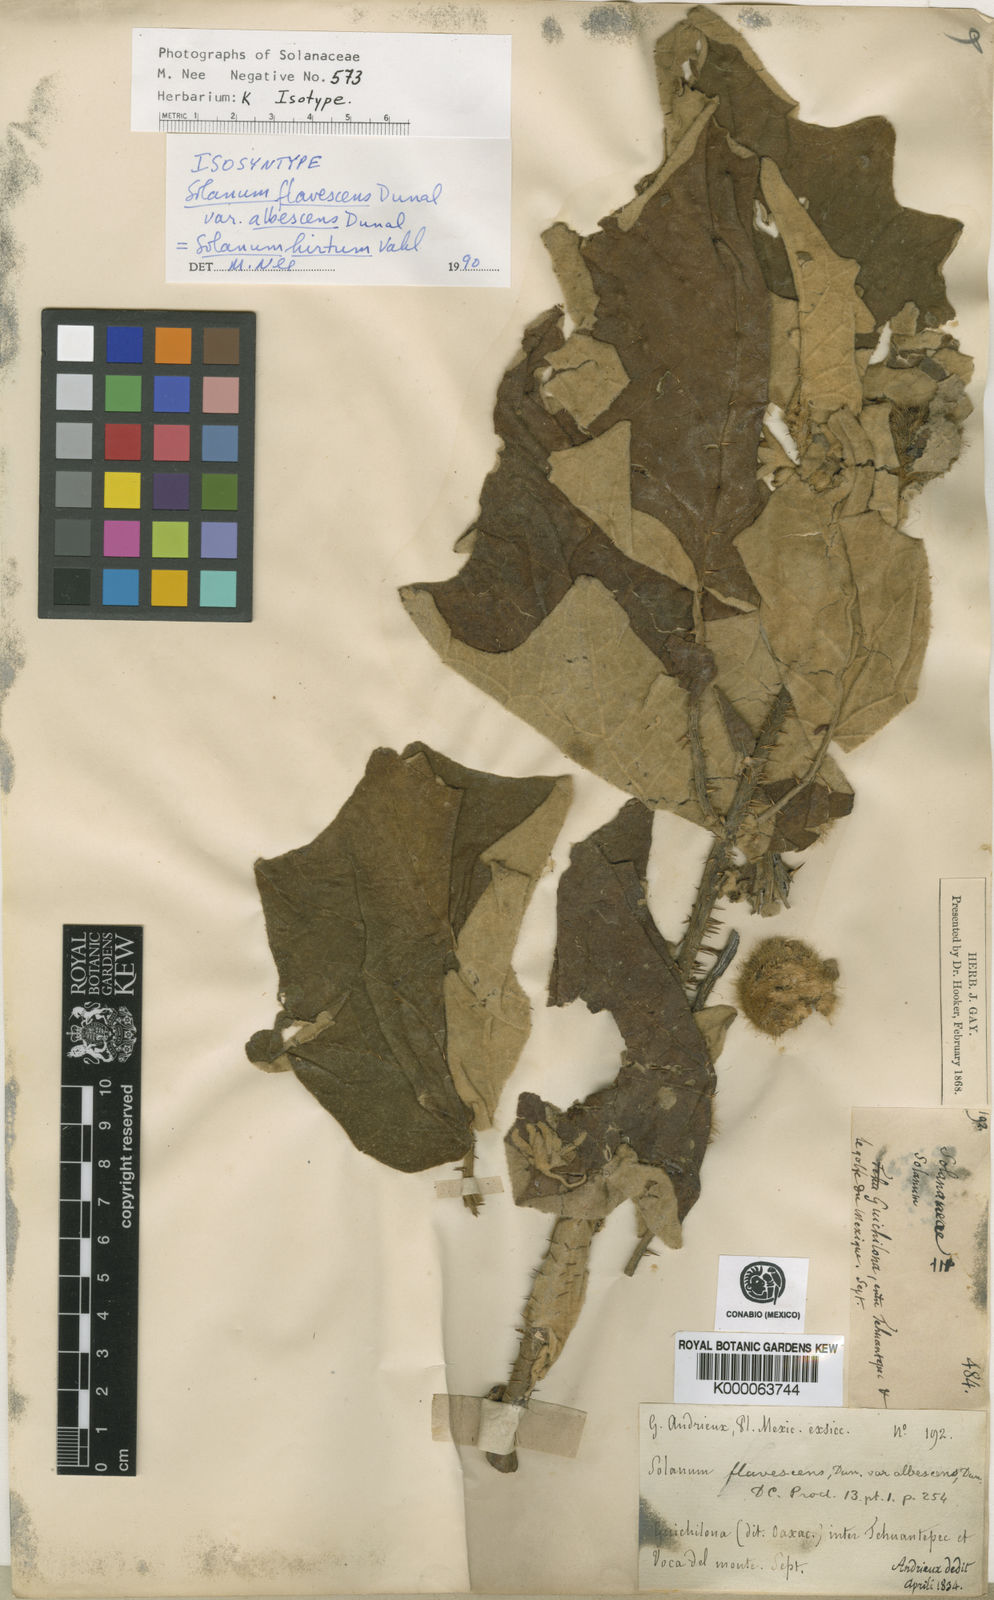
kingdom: Plantae
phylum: Tracheophyta
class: Magnoliopsida
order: Solanales
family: Solanaceae
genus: Solanum
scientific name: Solanum hirtum
